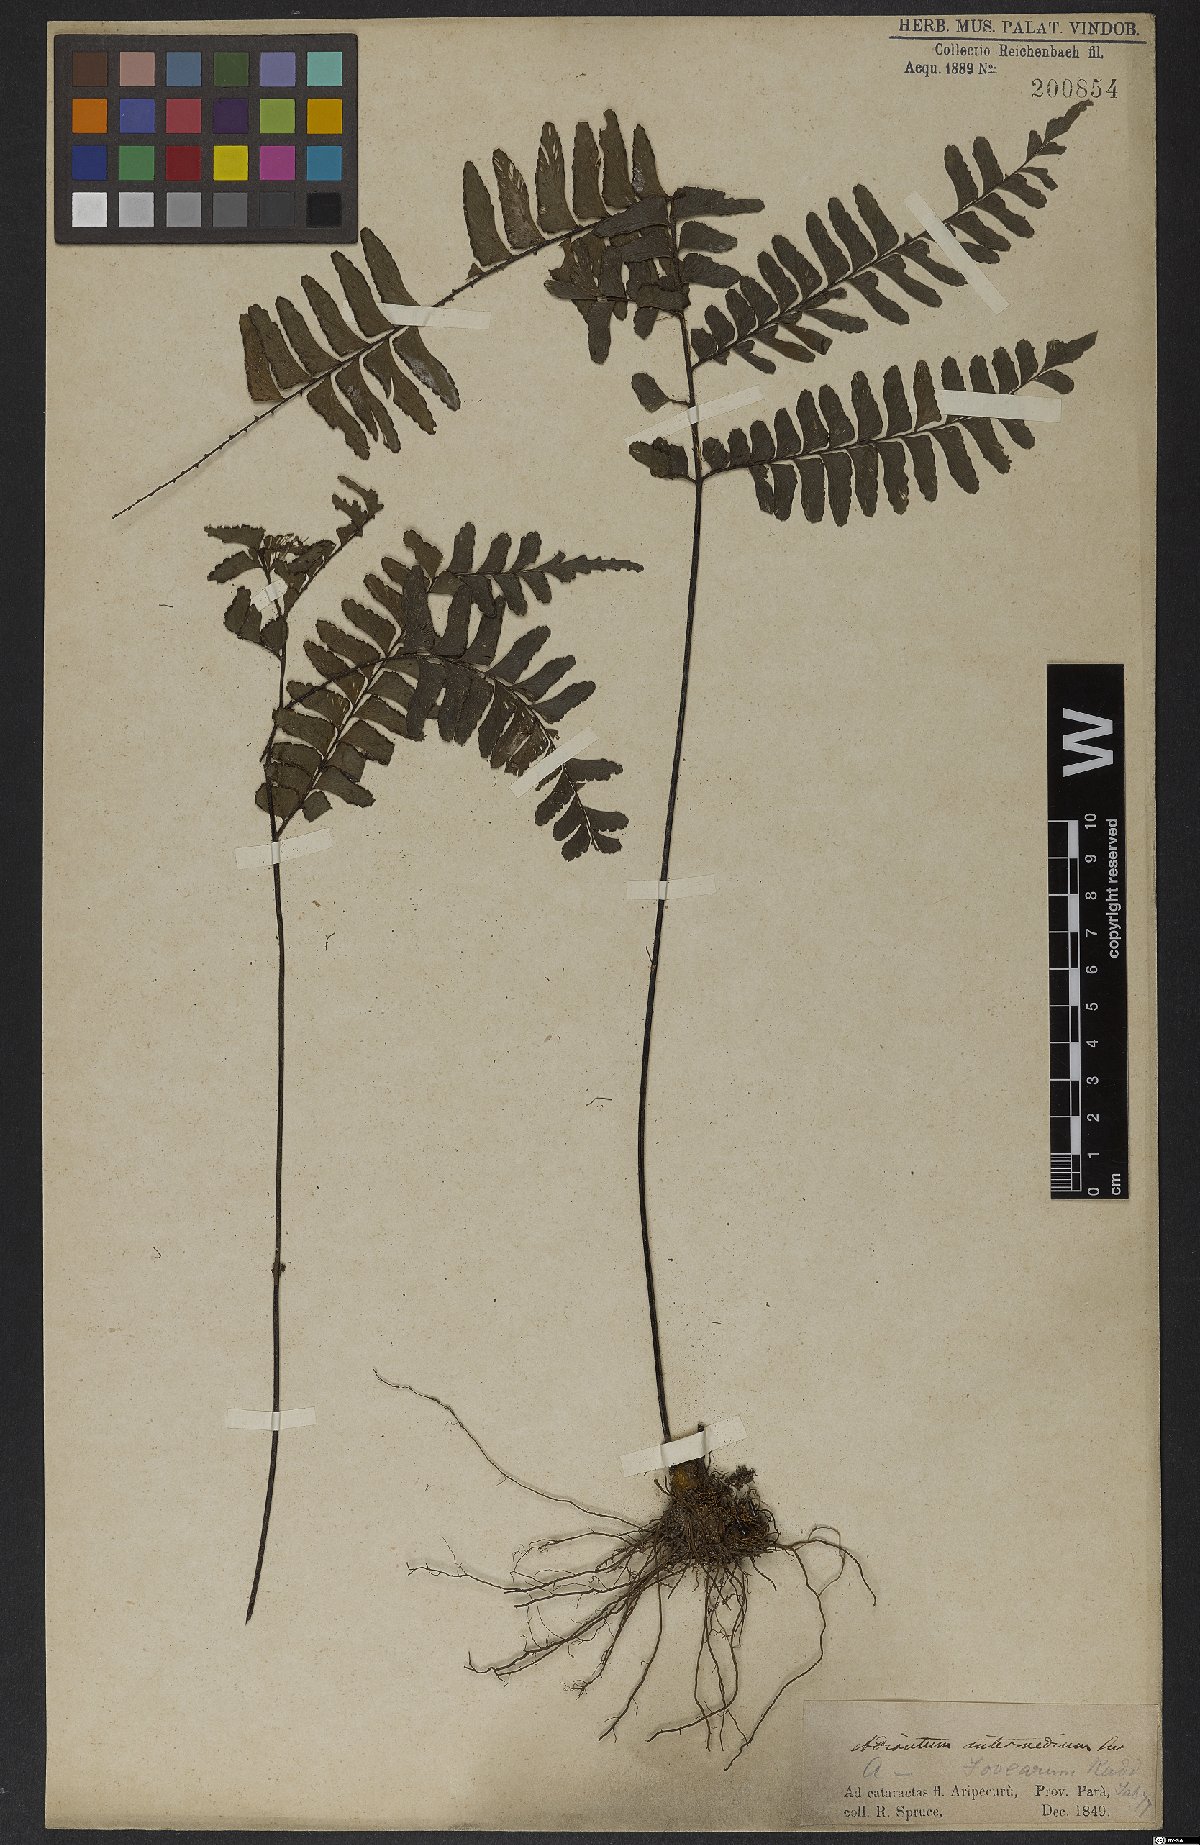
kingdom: Plantae
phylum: Tracheophyta
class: Polypodiopsida
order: Polypodiales
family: Pteridaceae
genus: Adiantum
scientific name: Adiantum intermedium
